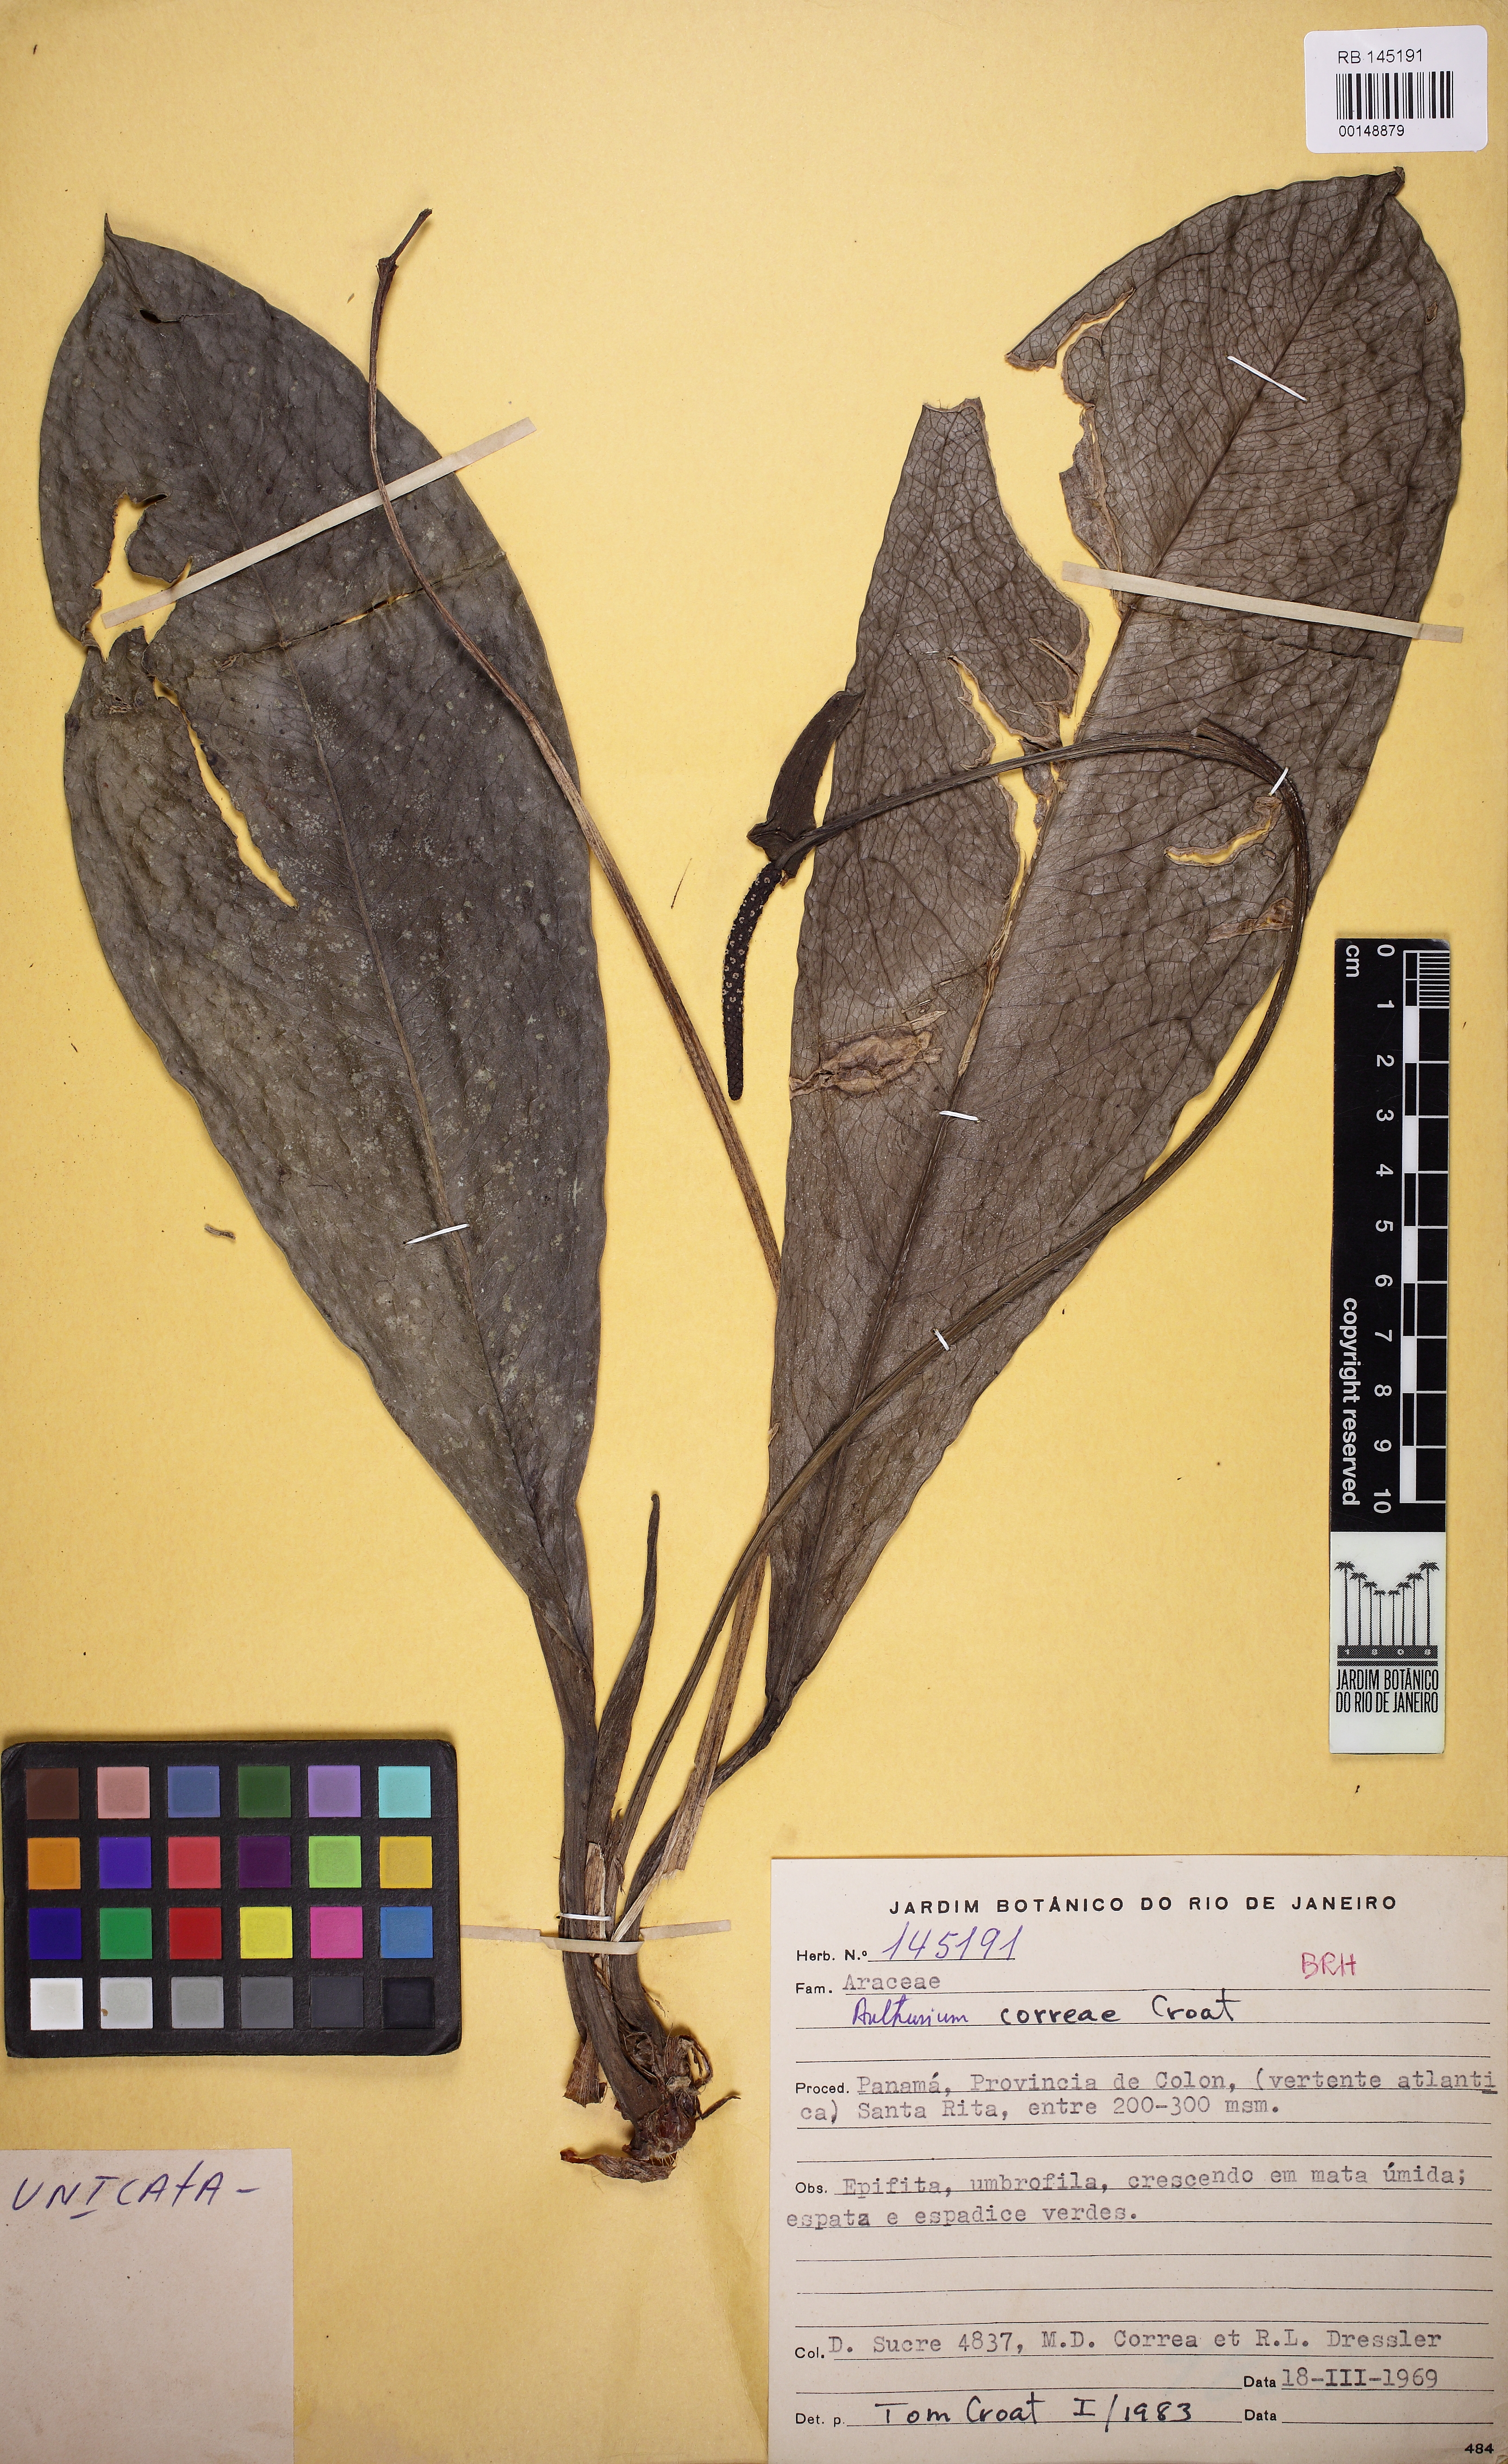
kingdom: Plantae
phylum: Tracheophyta
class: Liliopsida
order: Alismatales
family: Araceae
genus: Anthurium
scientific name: Anthurium correae
